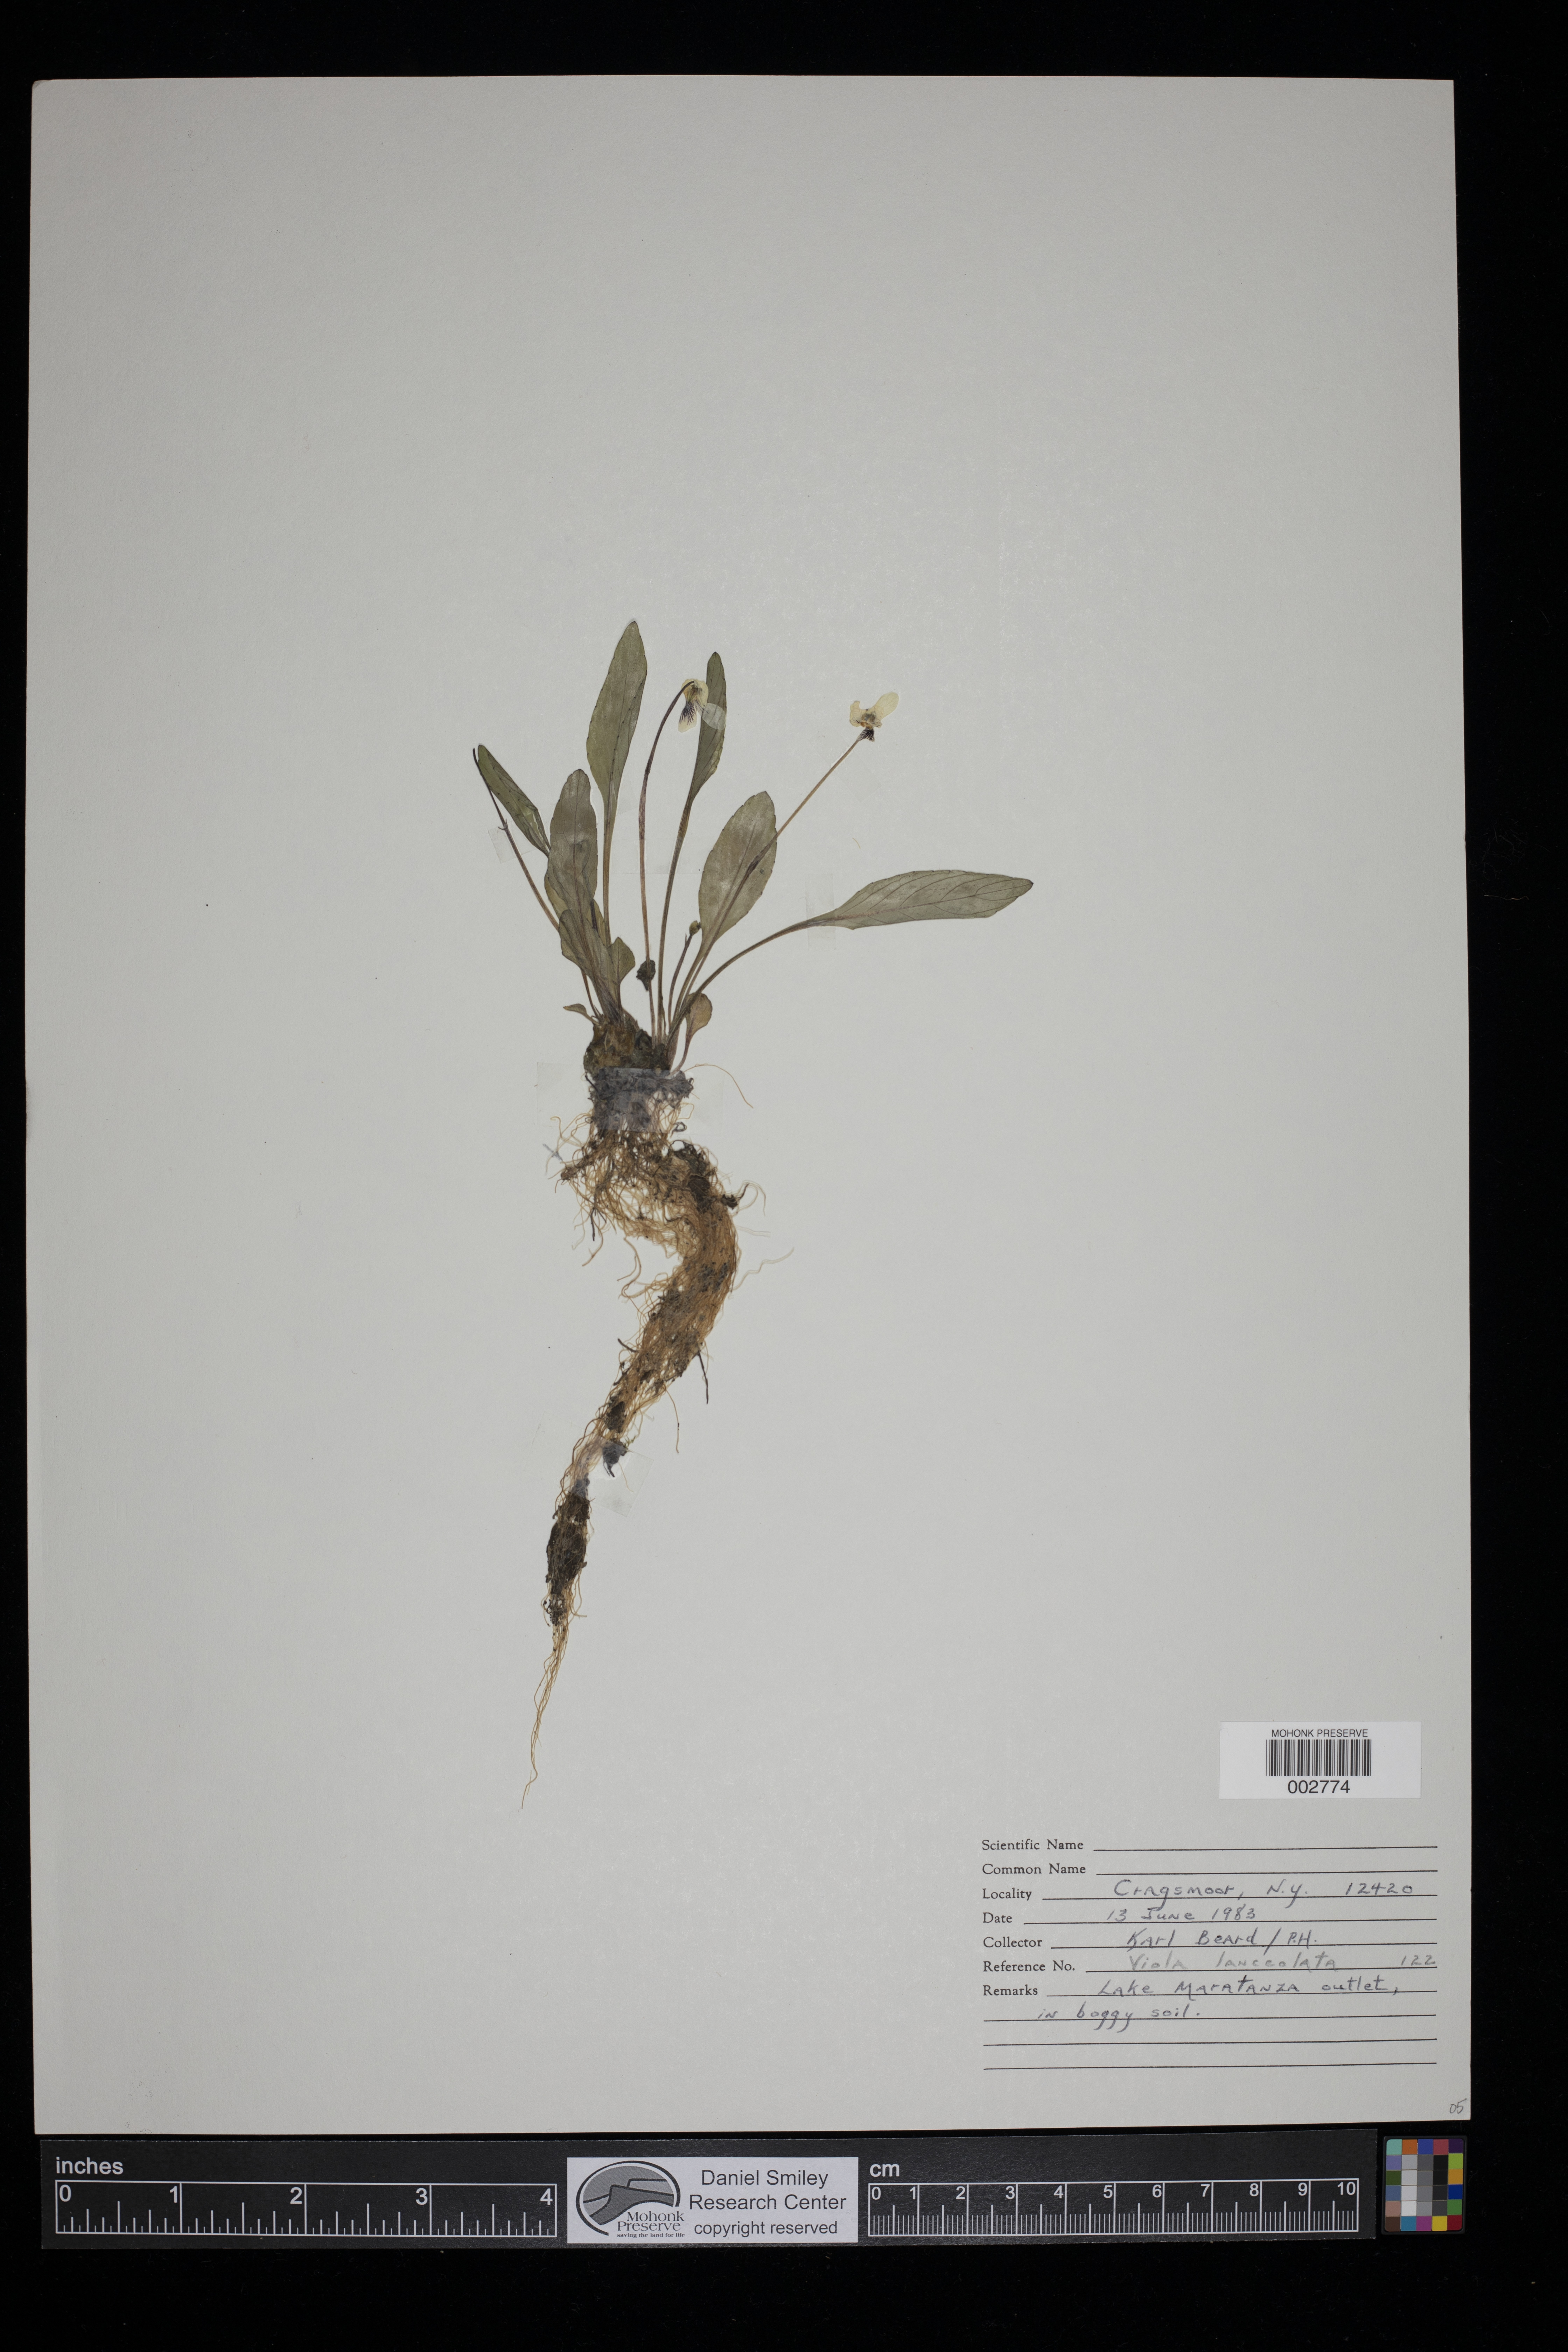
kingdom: Plantae
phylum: Tracheophyta
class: Magnoliopsida
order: Malpighiales
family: Violaceae
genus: Viola
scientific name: Viola lanceolata
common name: Bog white violet
